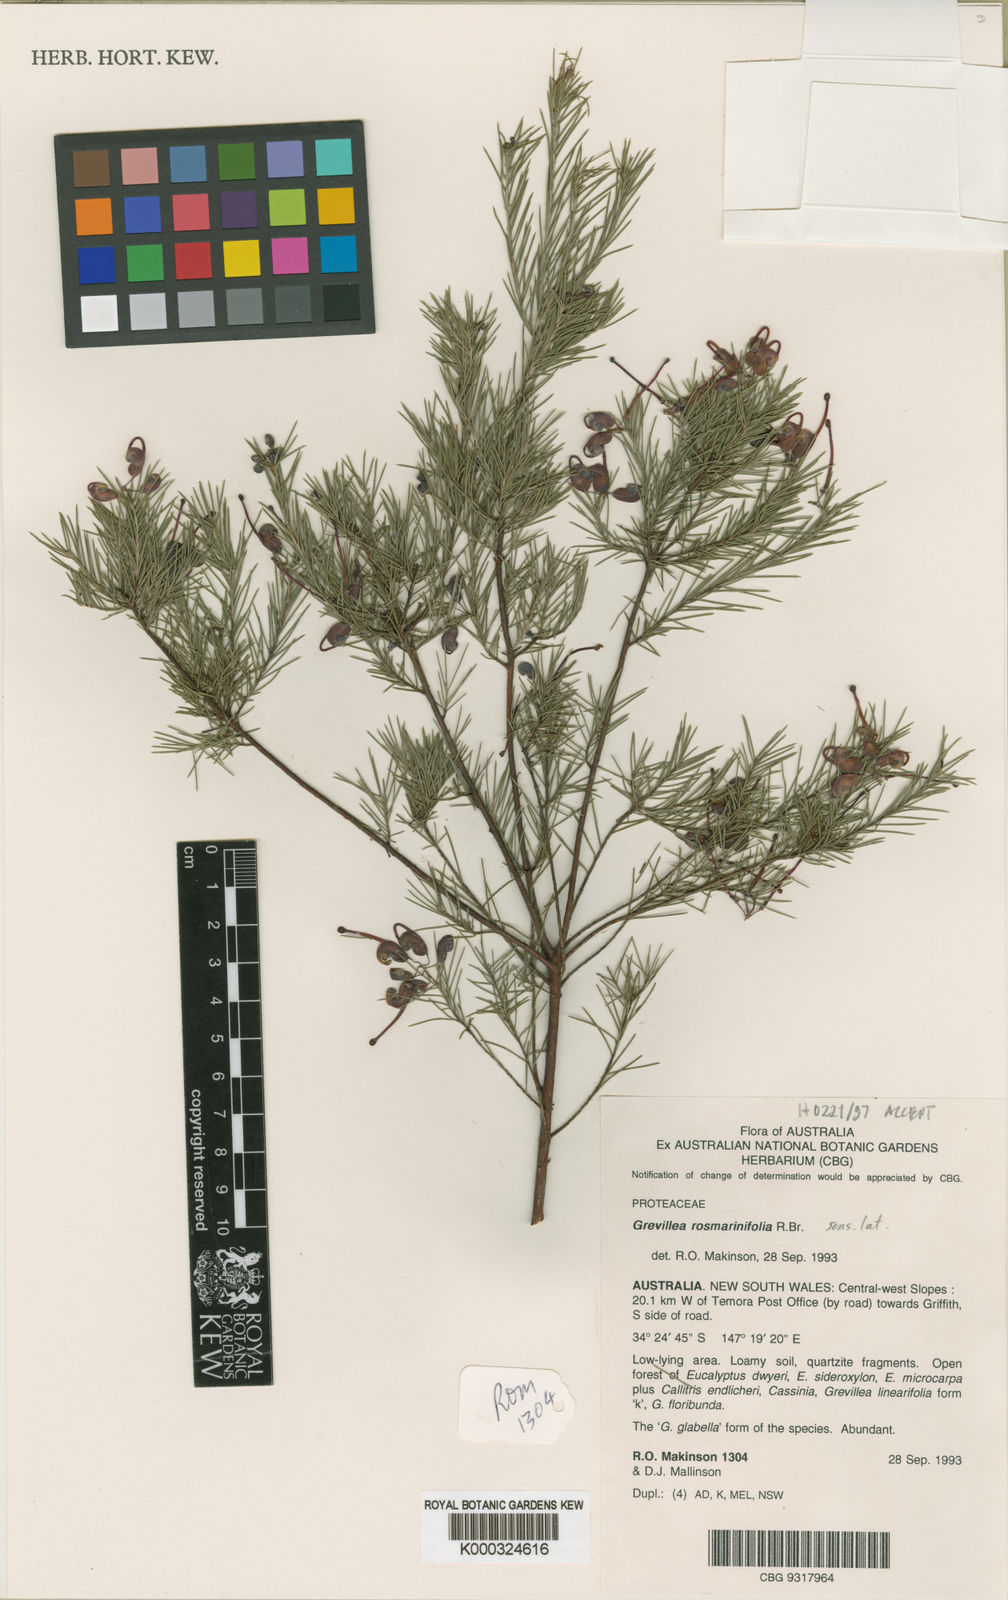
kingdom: Plantae
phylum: Tracheophyta
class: Magnoliopsida
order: Proteales
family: Proteaceae
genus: Grevillea
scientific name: Grevillea rosmarinifolia
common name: Rosemary grevillea
